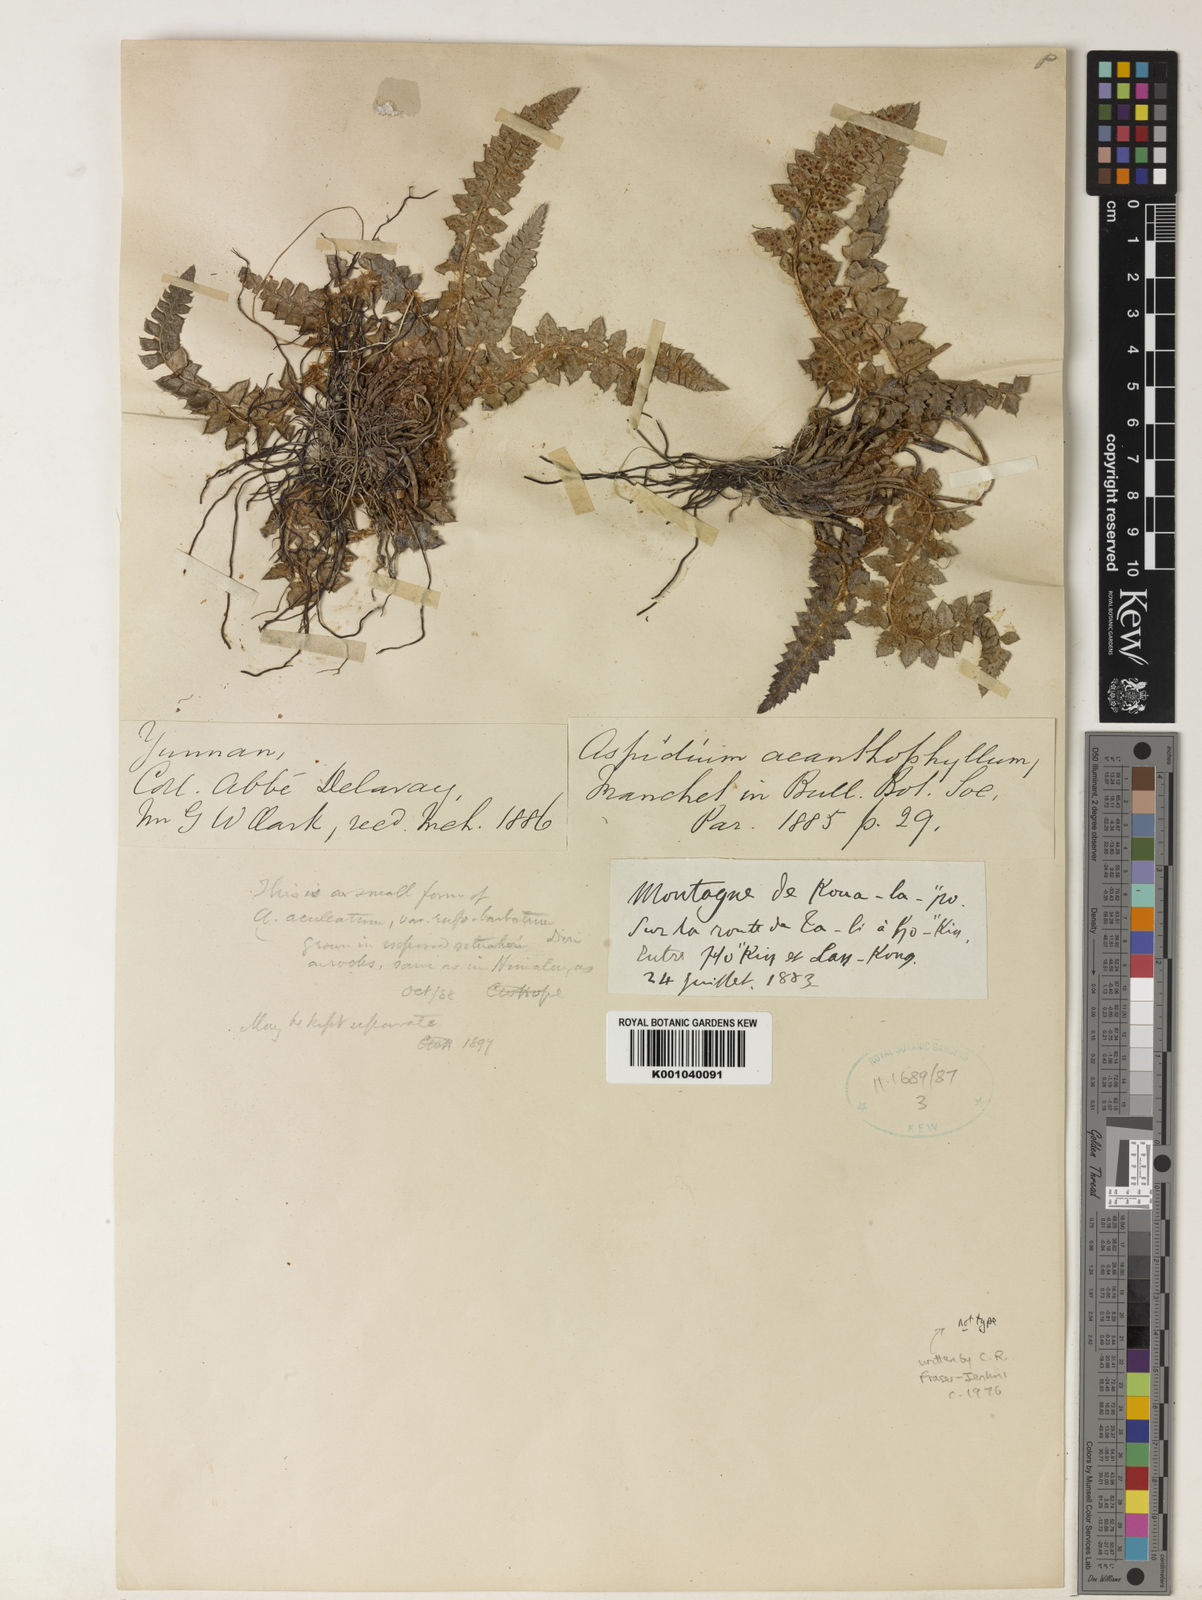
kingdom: Plantae
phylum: Tracheophyta
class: Polypodiopsida
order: Polypodiales
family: Dryopteridaceae
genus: Polystichum
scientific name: Polystichum acanthophyllum
